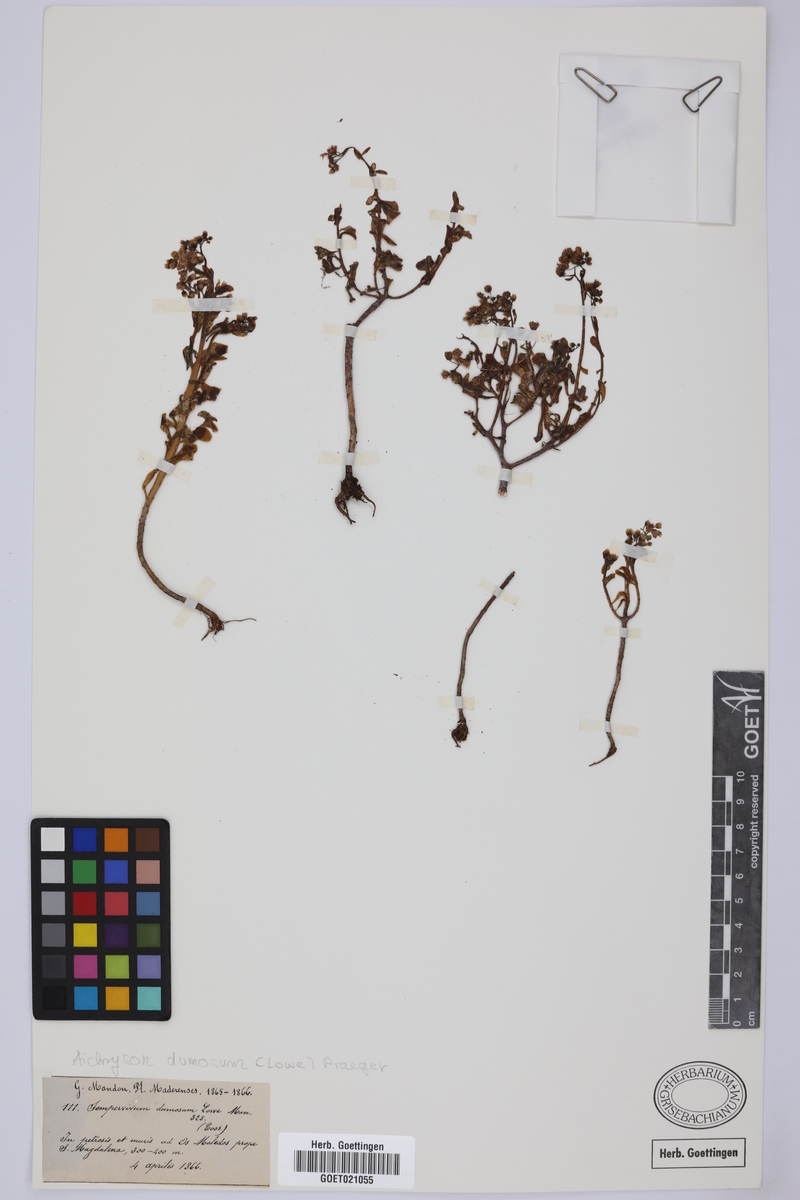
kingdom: Plantae
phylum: Tracheophyta
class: Magnoliopsida
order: Saxifragales
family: Crassulaceae
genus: Aichryson
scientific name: Aichryson dumosum
